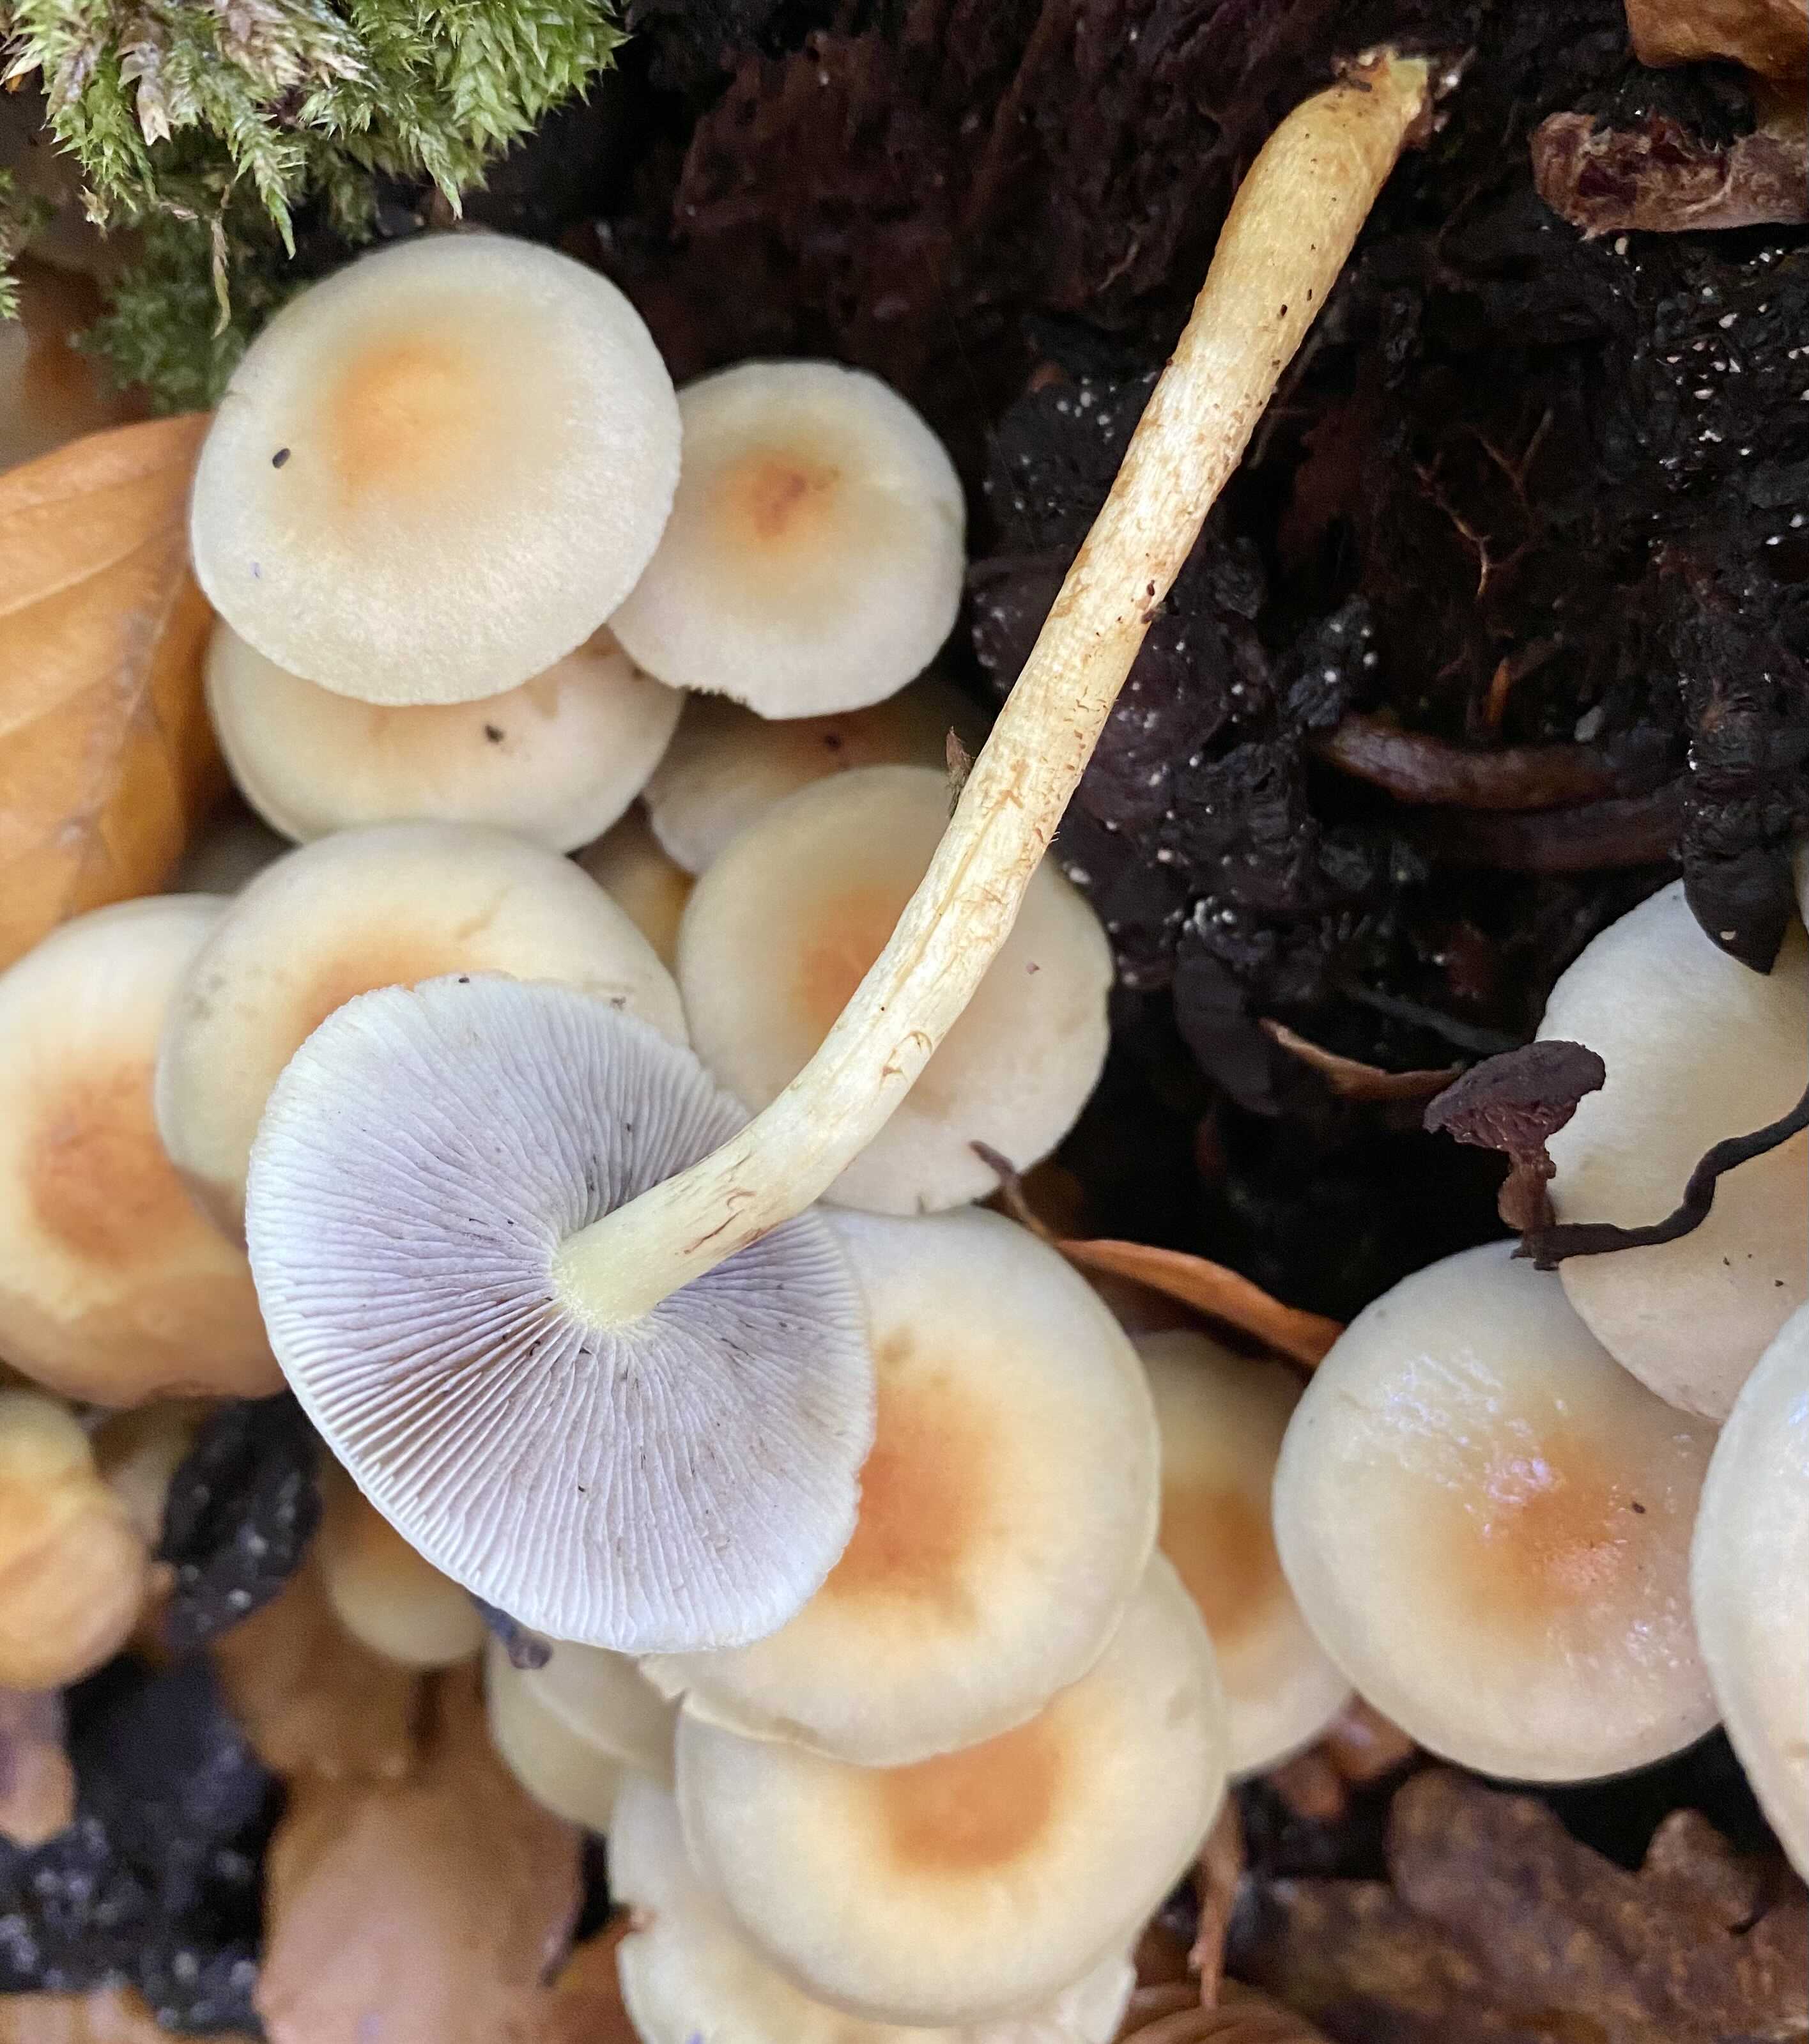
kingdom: Fungi
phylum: Basidiomycota
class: Agaricomycetes
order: Agaricales
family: Strophariaceae
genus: Hypholoma
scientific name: Hypholoma fasciculare
